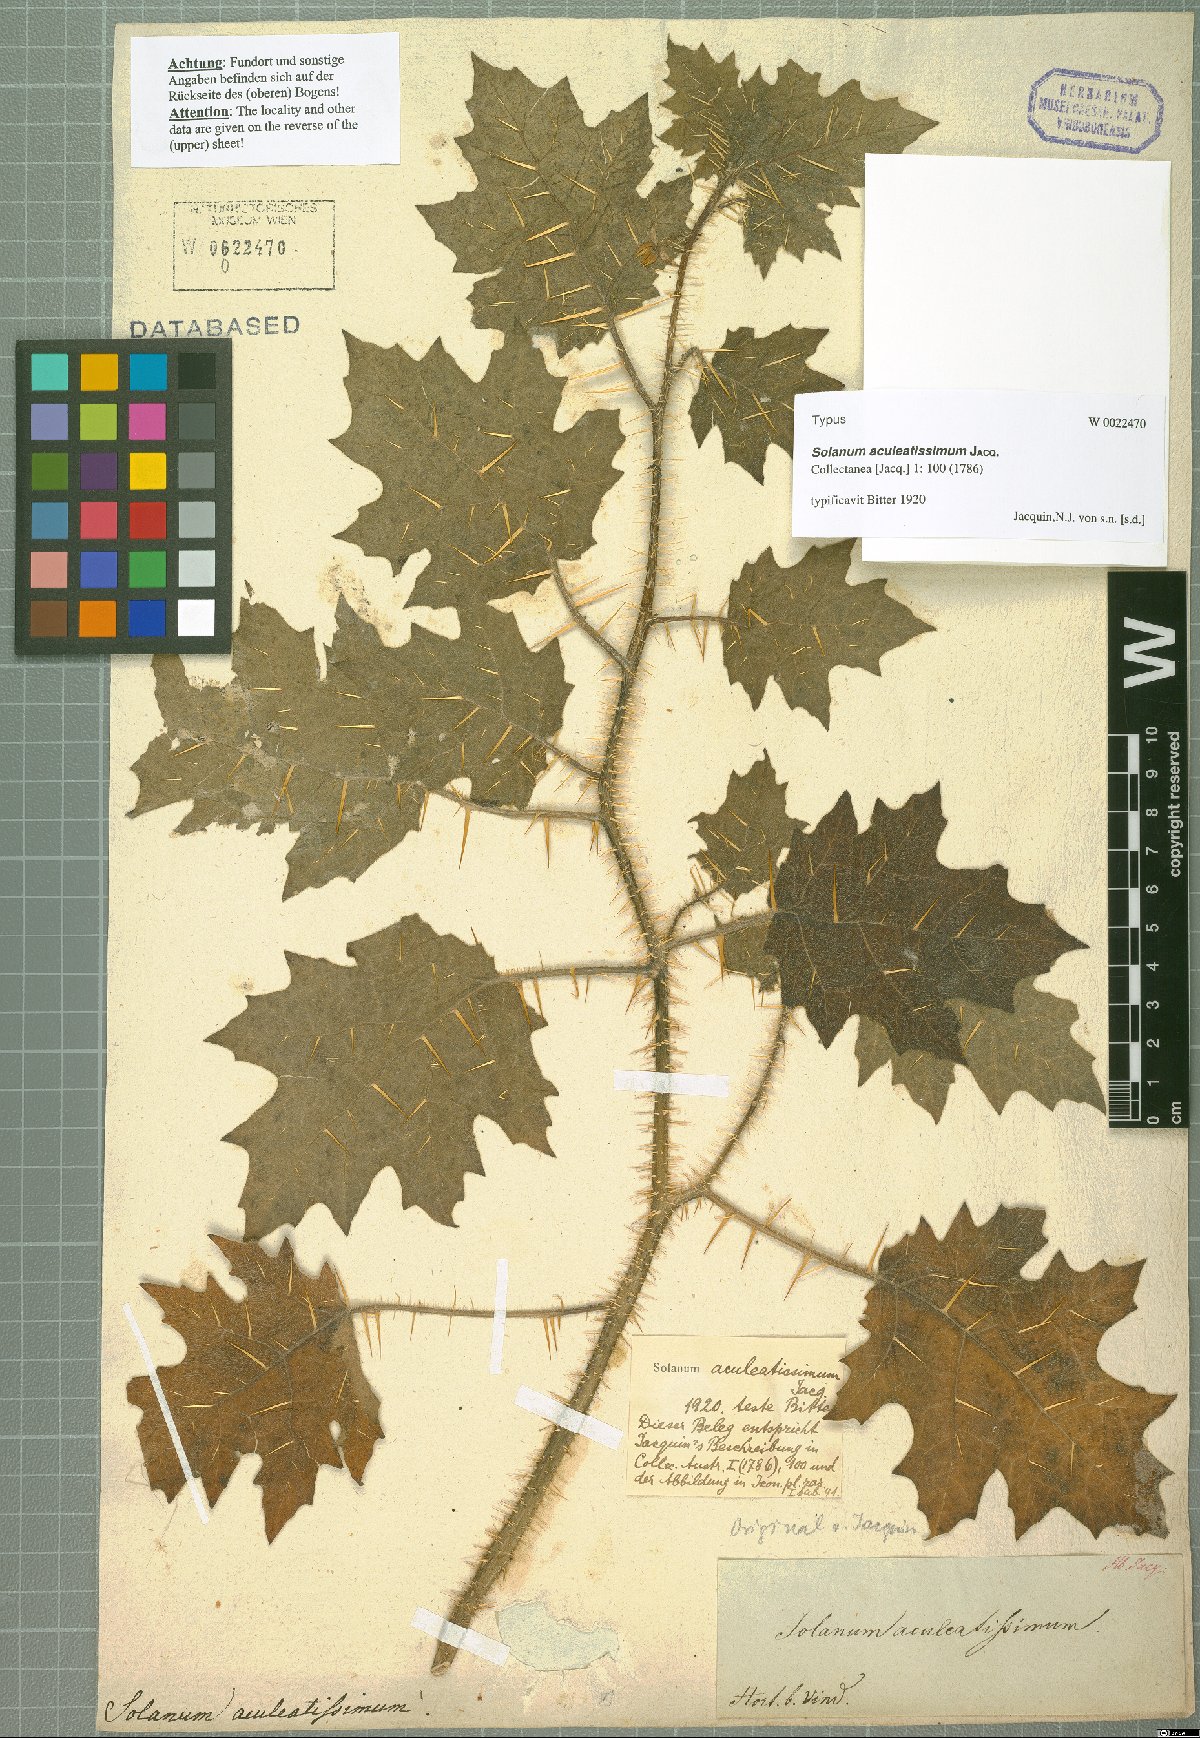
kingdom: Plantae
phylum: Tracheophyta
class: Magnoliopsida
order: Solanales
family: Solanaceae
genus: Solanum
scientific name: Solanum aculeatissimum
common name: Dutch eggplant
